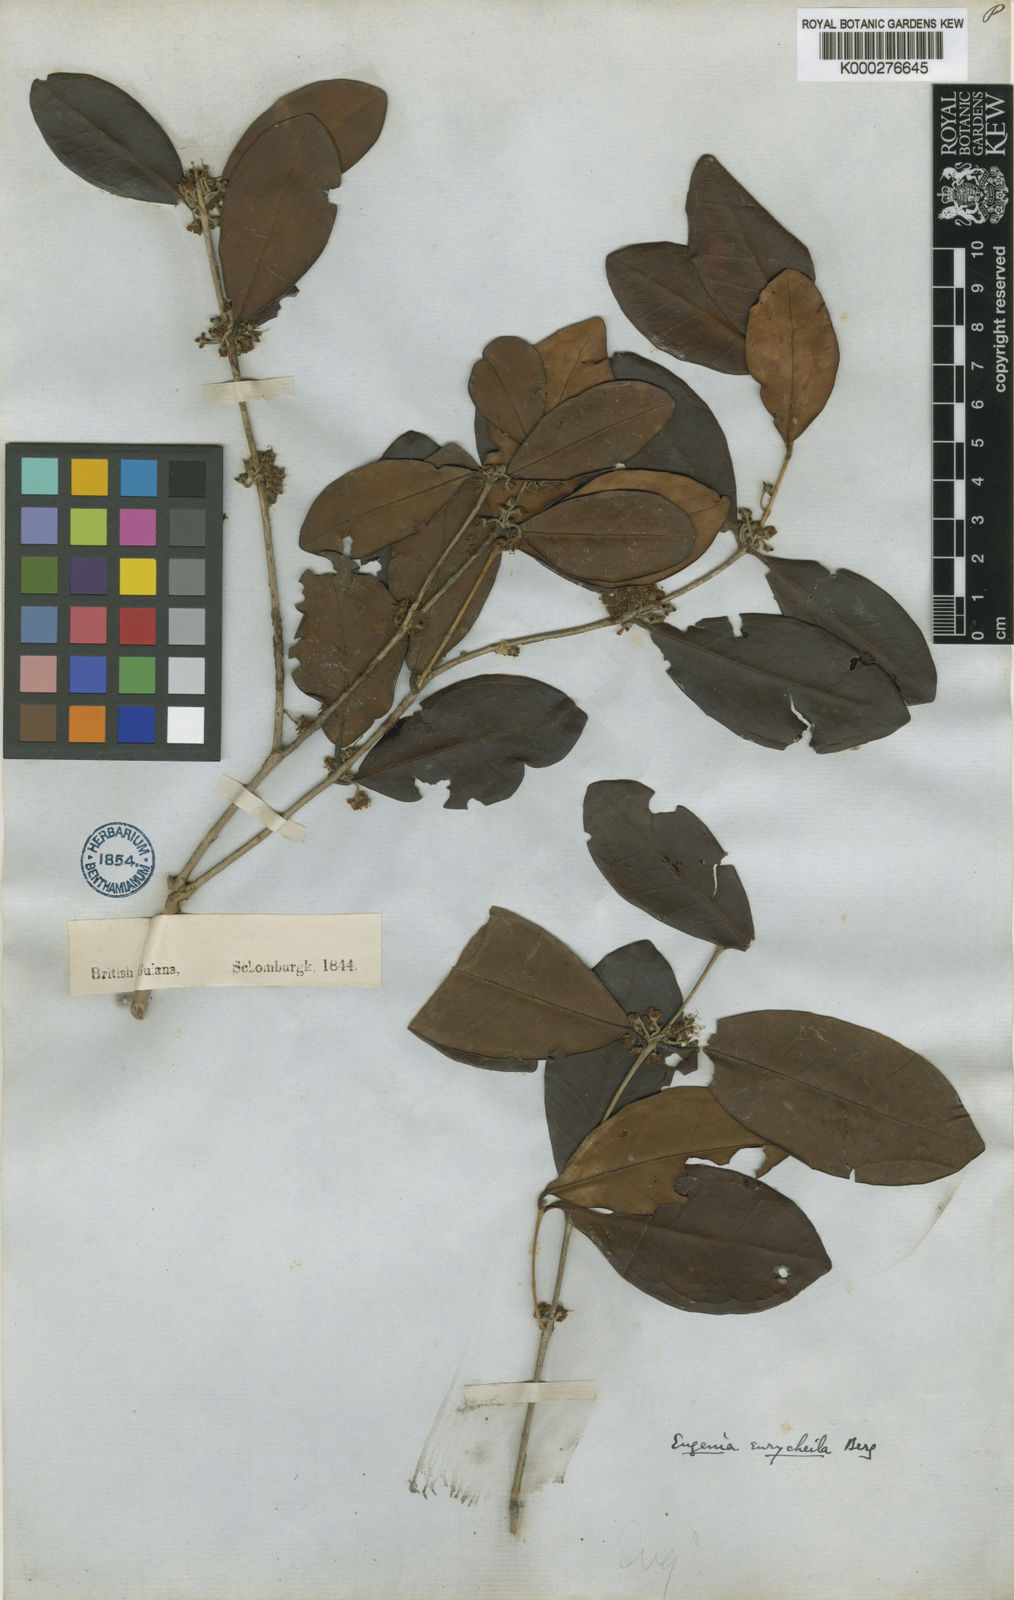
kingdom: Plantae
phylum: Tracheophyta
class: Magnoliopsida
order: Myrtales
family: Myrtaceae
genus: Eugenia
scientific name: Eugenia eurycheila
